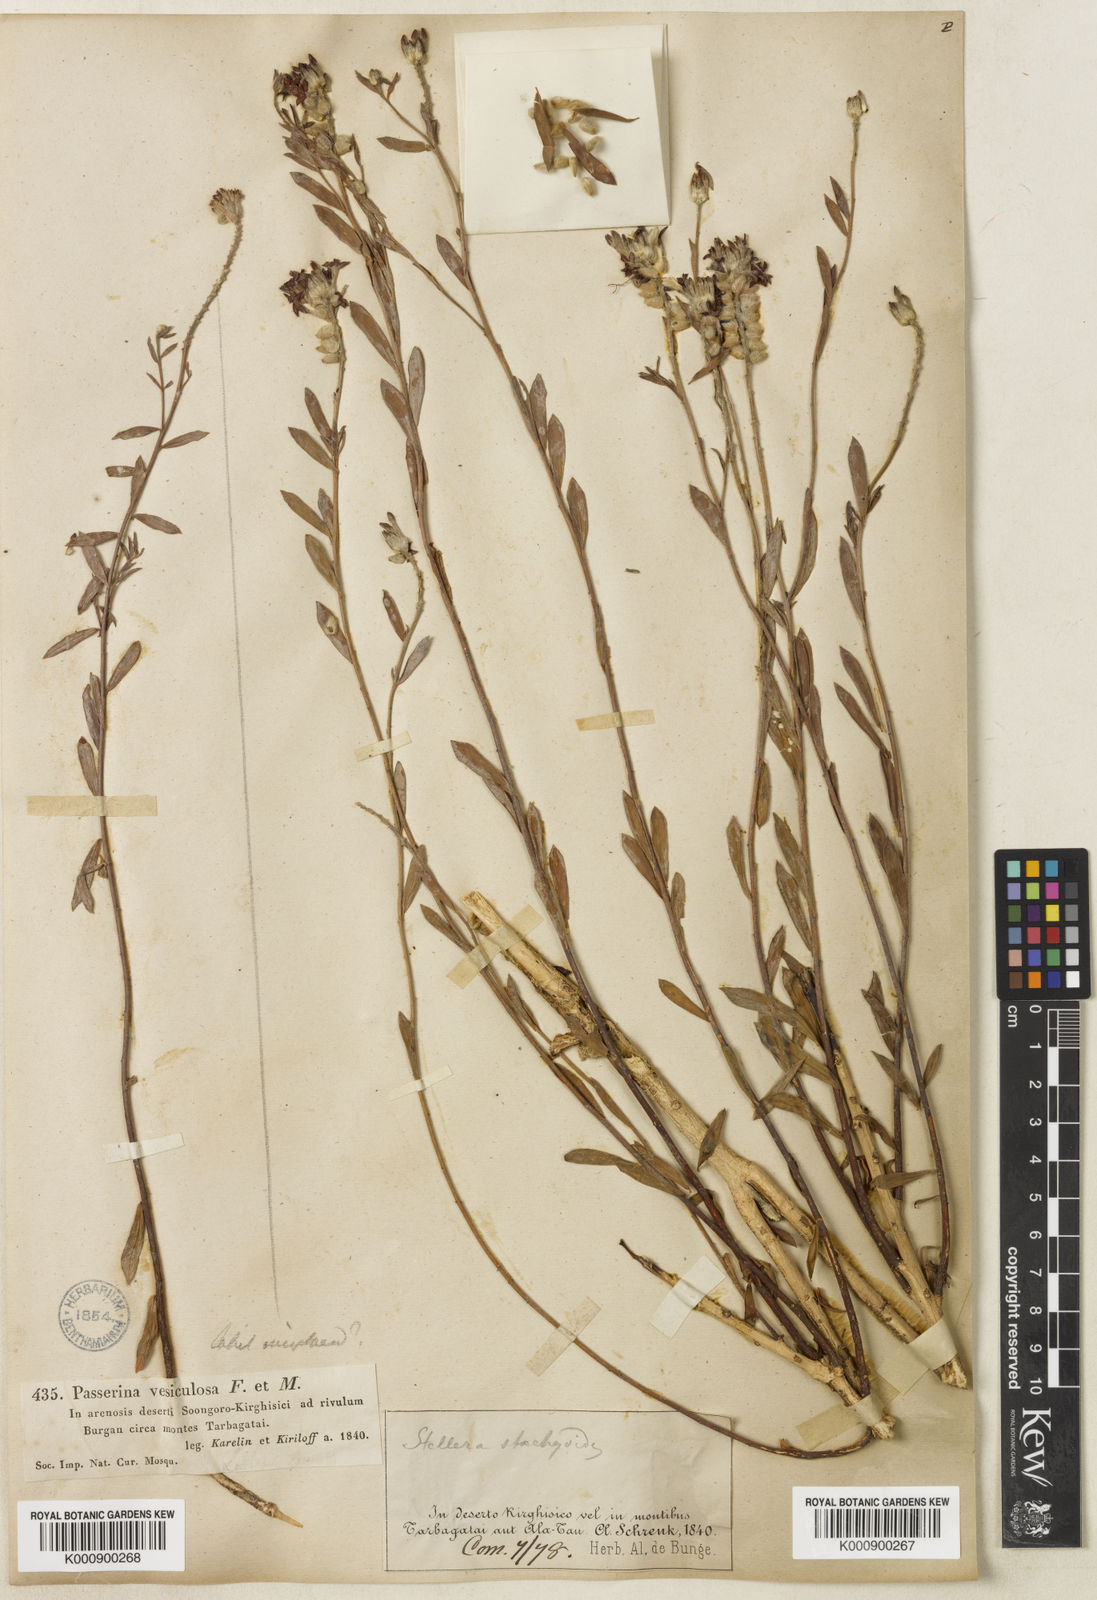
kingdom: Plantae
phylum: Tracheophyta
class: Magnoliopsida
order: Malvales
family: Thymelaeaceae
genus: Diarthron
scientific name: Diarthron ammodendron
